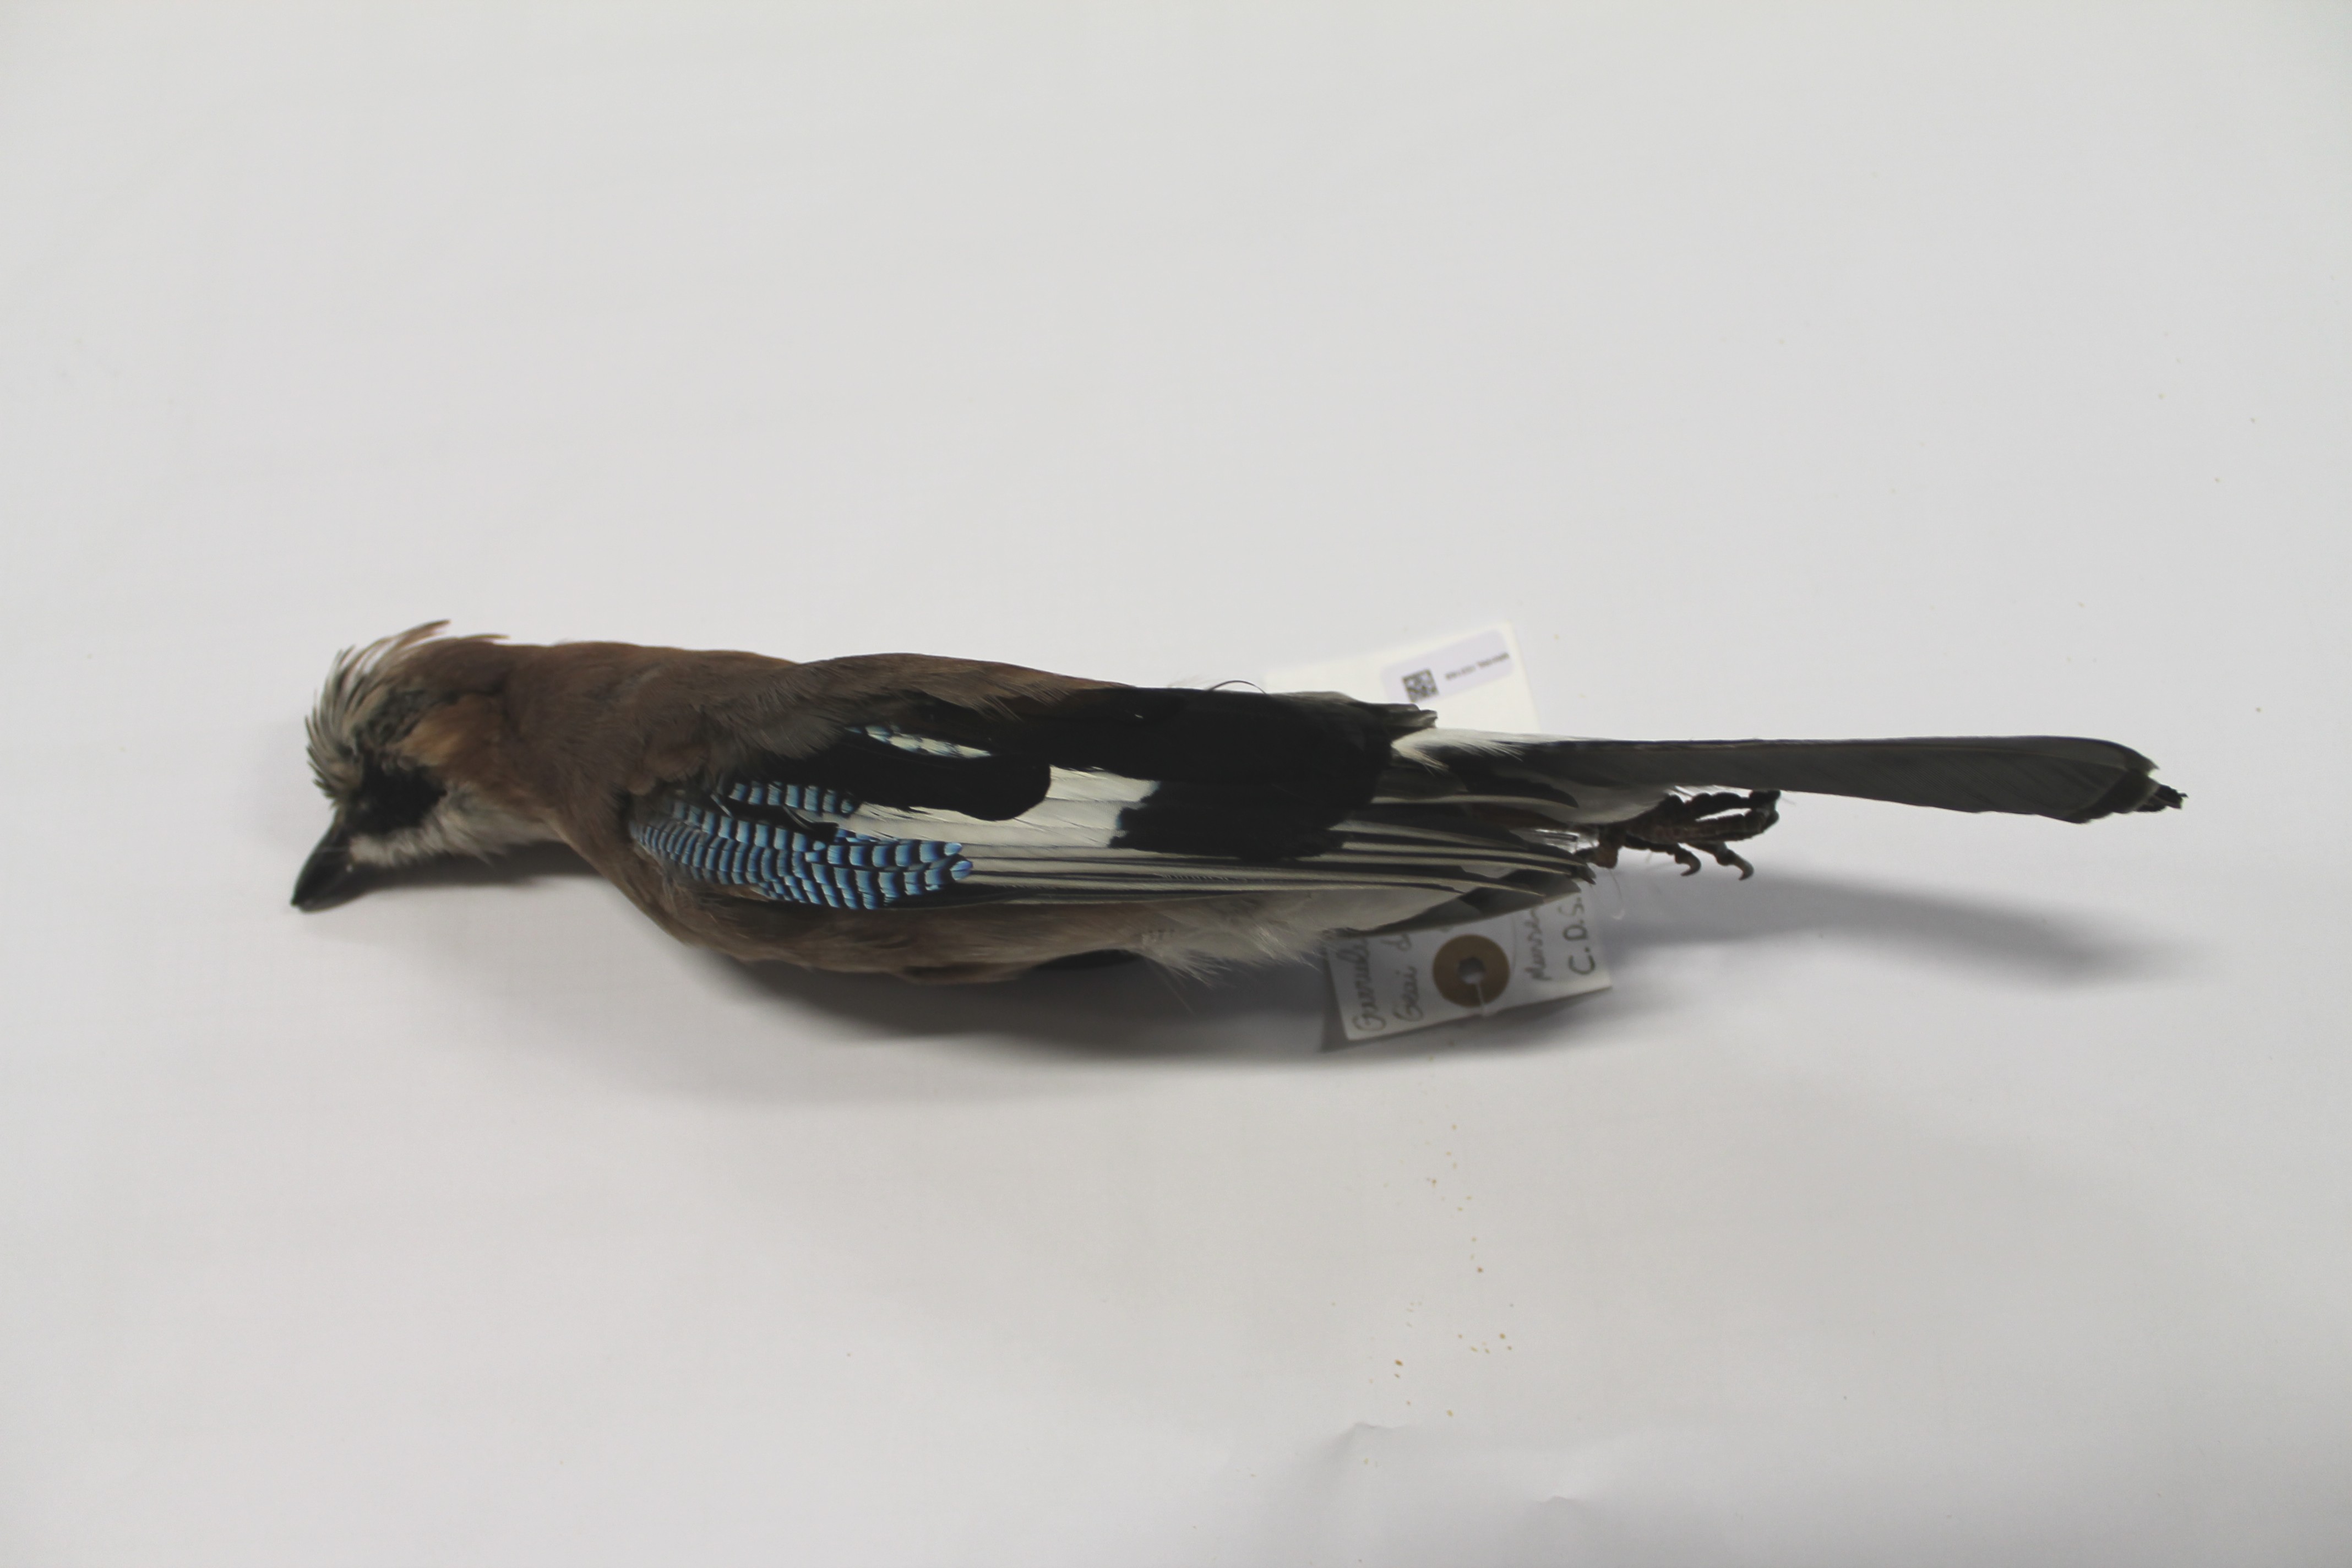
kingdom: Animalia
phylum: Chordata
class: Aves
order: Passeriformes
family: Corvidae
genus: Garrulus
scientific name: Garrulus glandarius
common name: Eurasian jay
